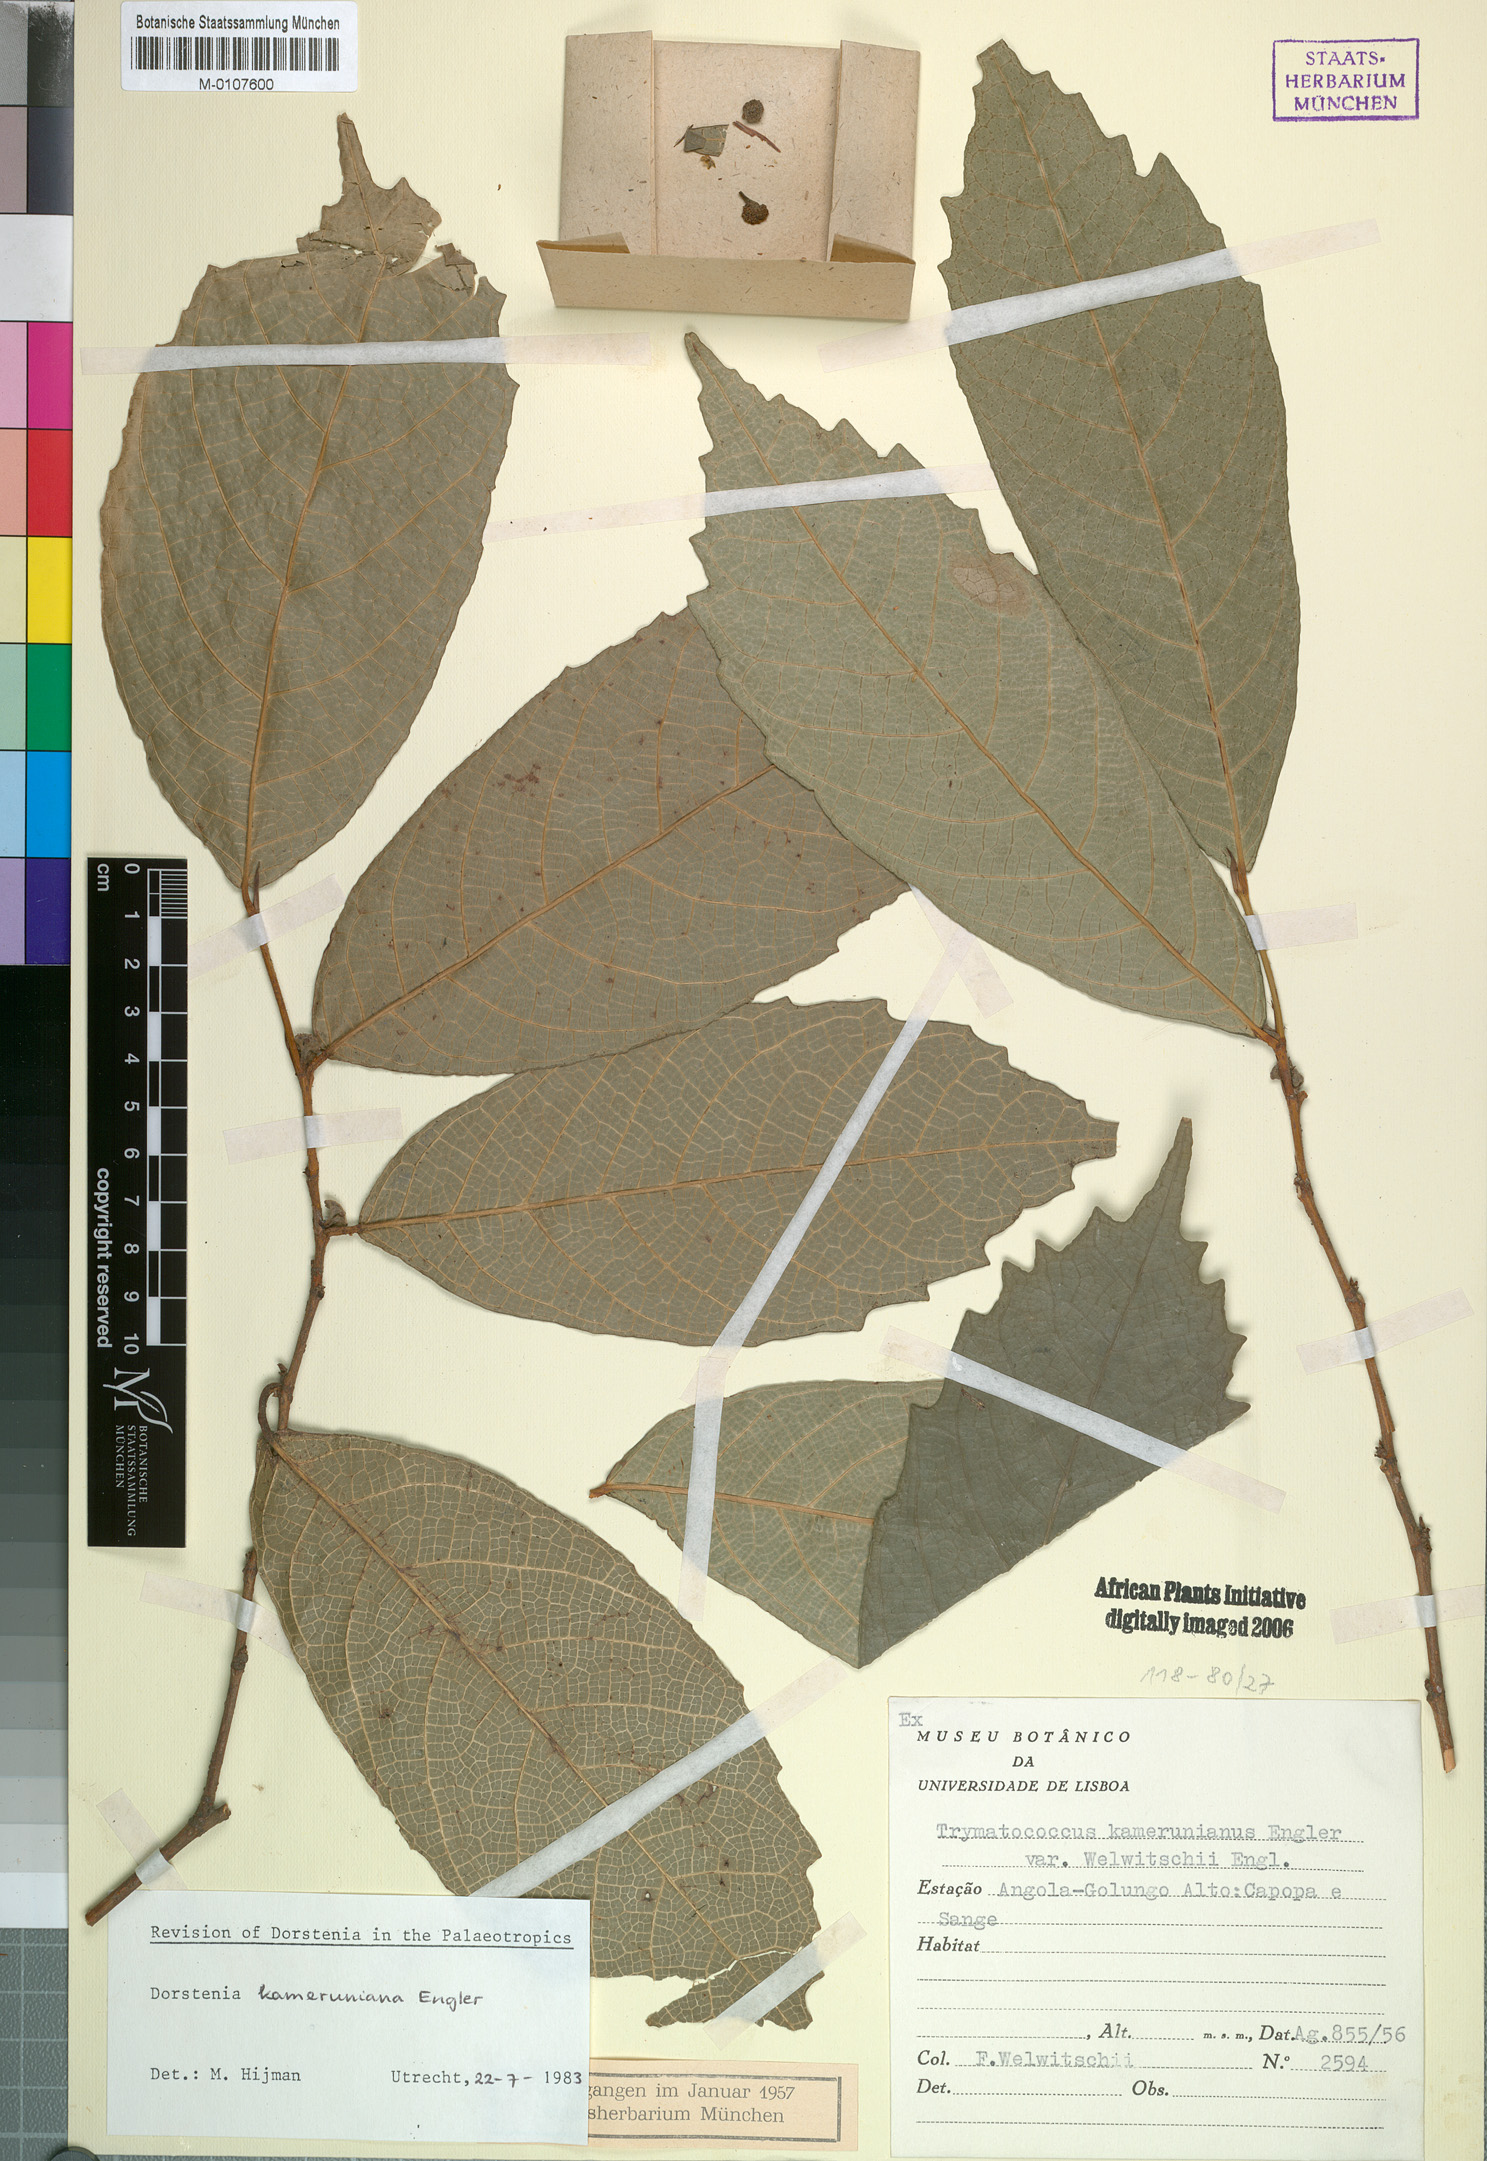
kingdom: Plantae
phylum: Tracheophyta
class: Magnoliopsida
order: Rosales
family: Moraceae
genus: Dorstenia
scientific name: Dorstenia kameruniana
